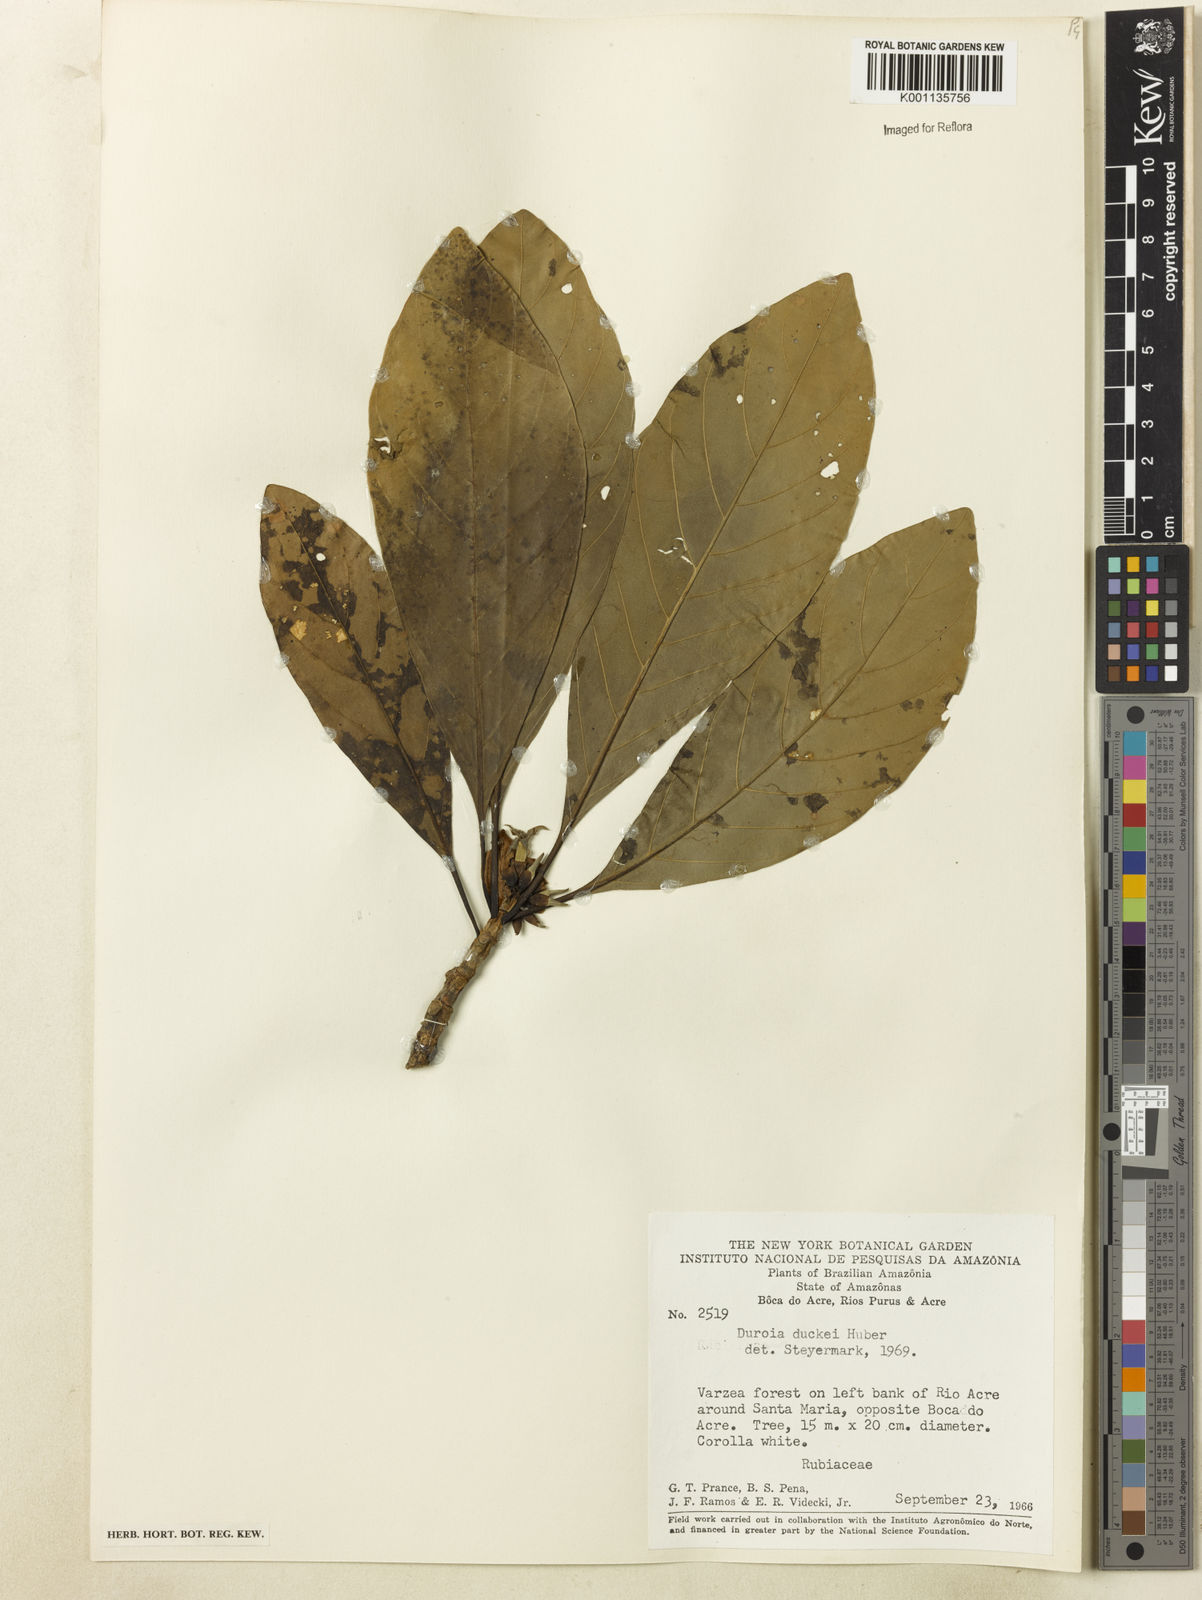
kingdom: Plantae
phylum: Tracheophyta
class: Magnoliopsida
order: Gentianales
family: Rubiaceae
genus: Duroia
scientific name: Duroia duckei
